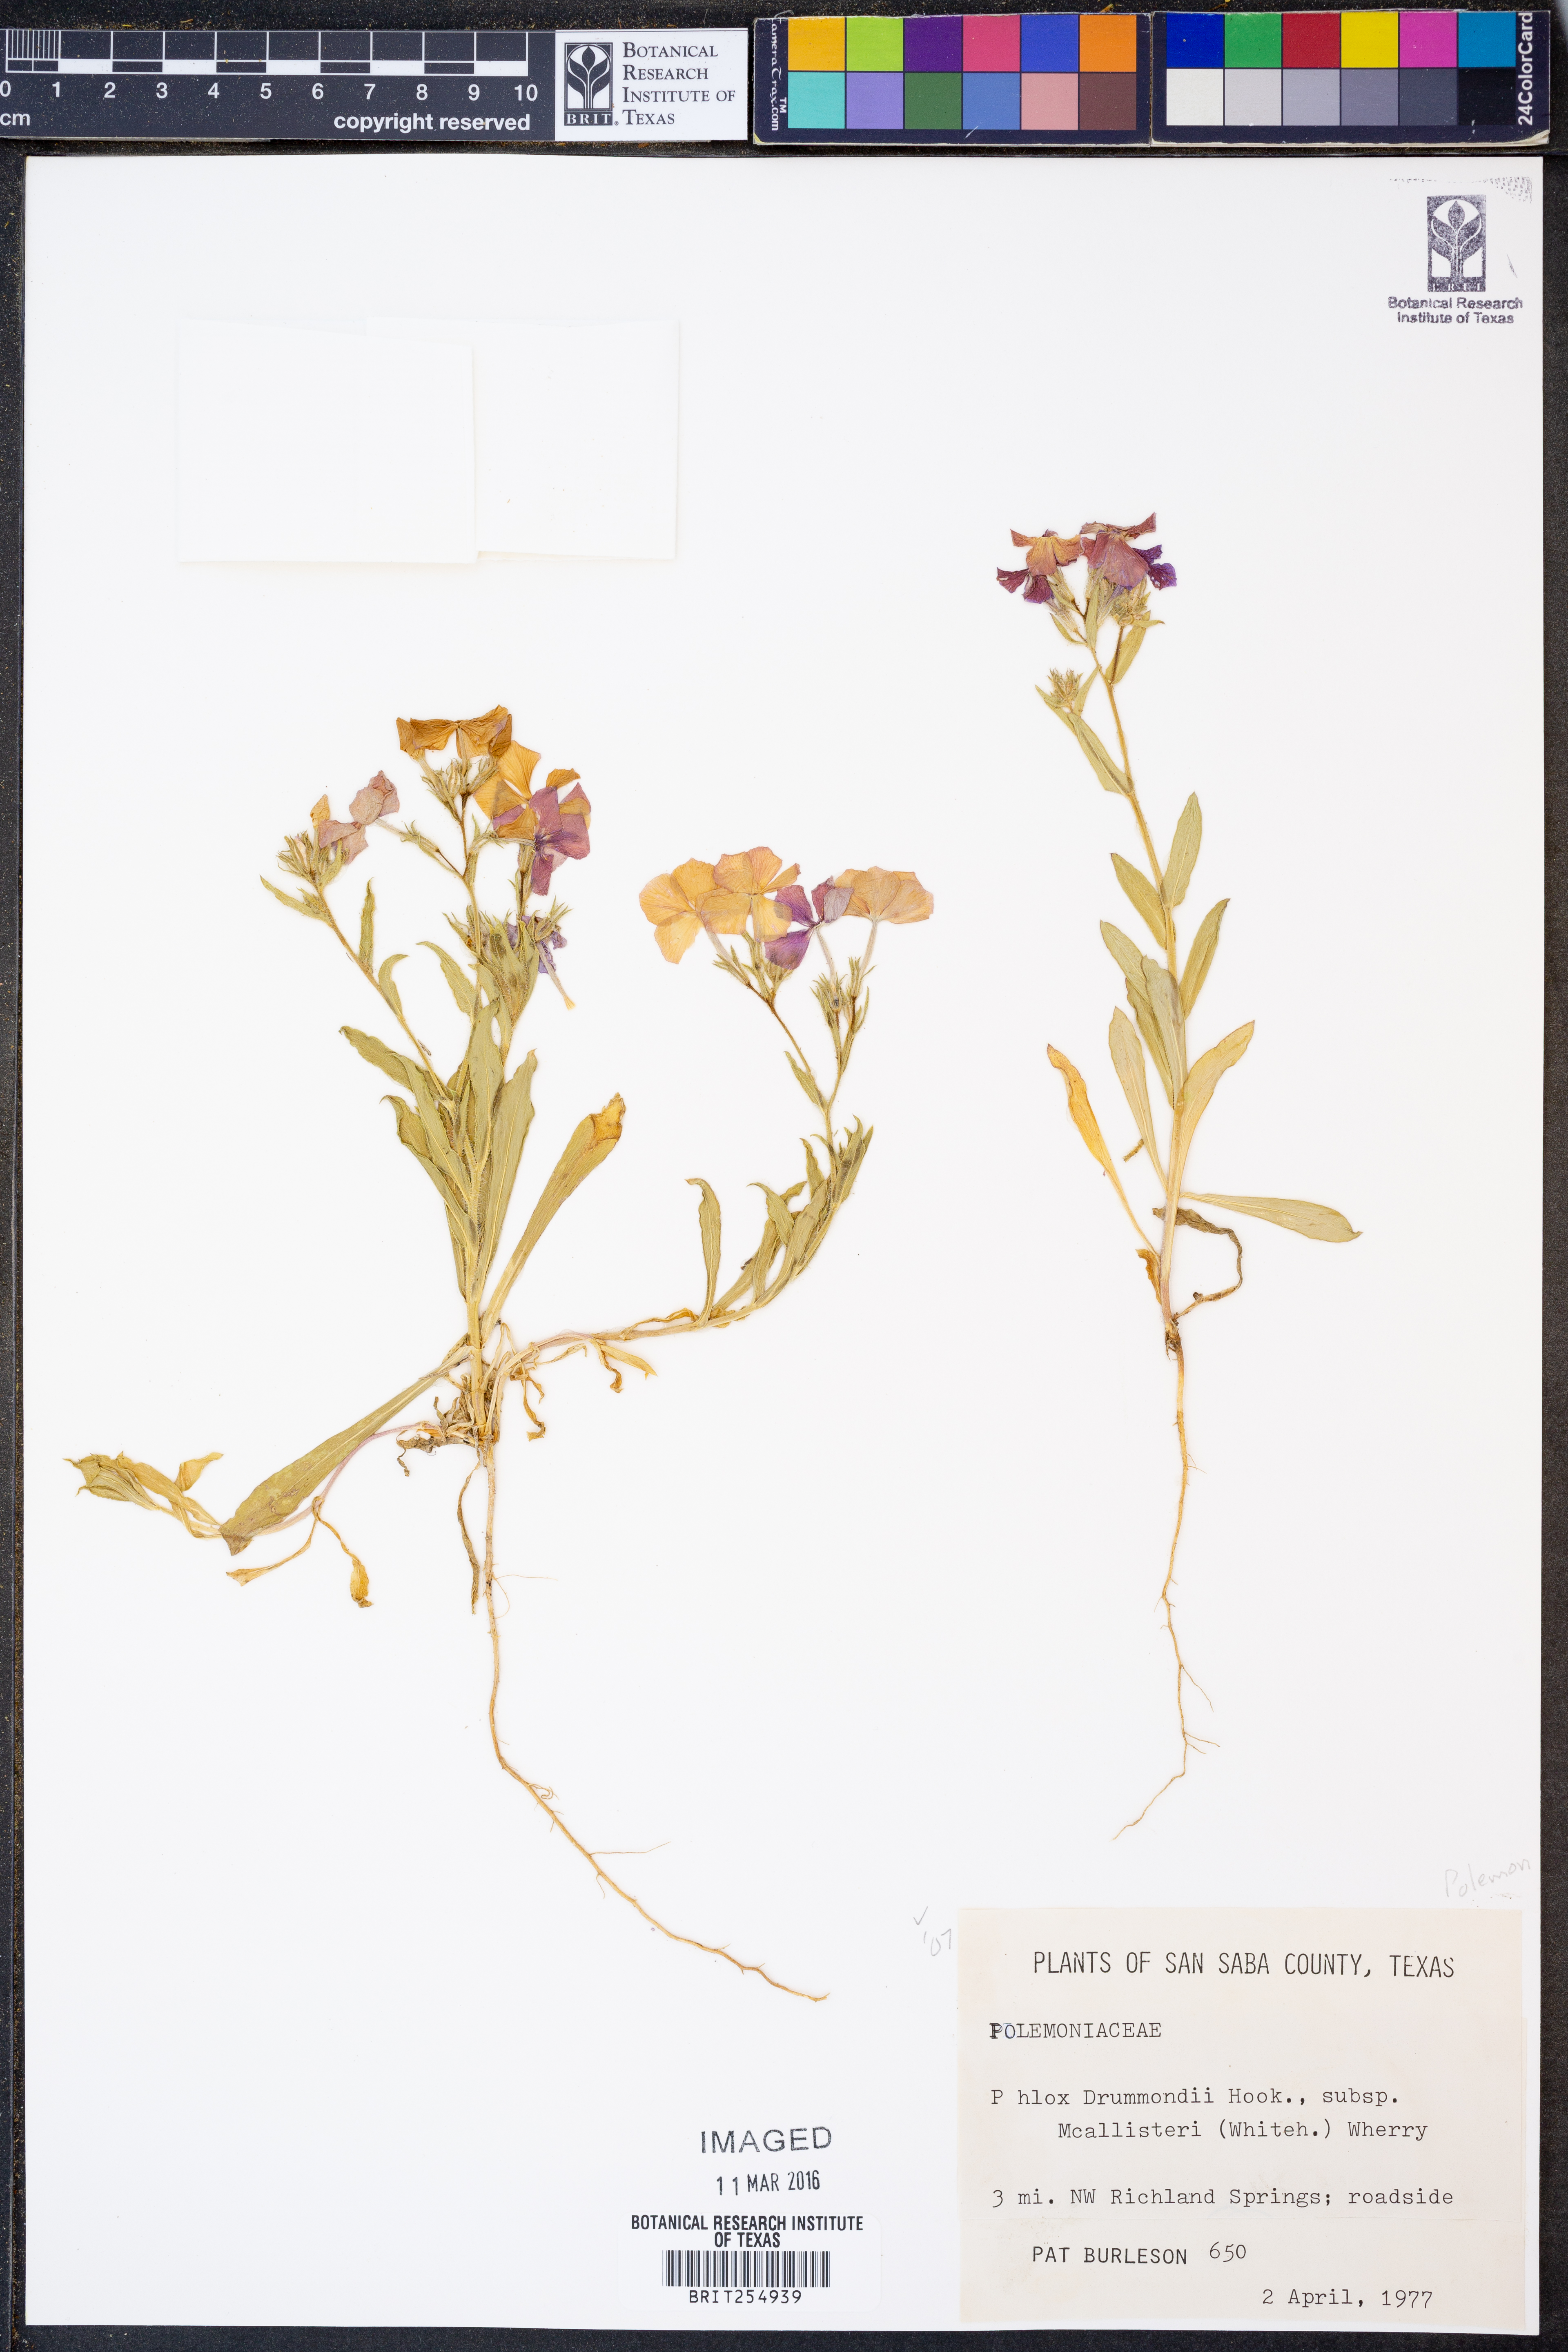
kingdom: Plantae
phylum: Tracheophyta
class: Magnoliopsida
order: Ericales
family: Polemoniaceae
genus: Phlox
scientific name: Phlox drummondii
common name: Drummond's phlox
